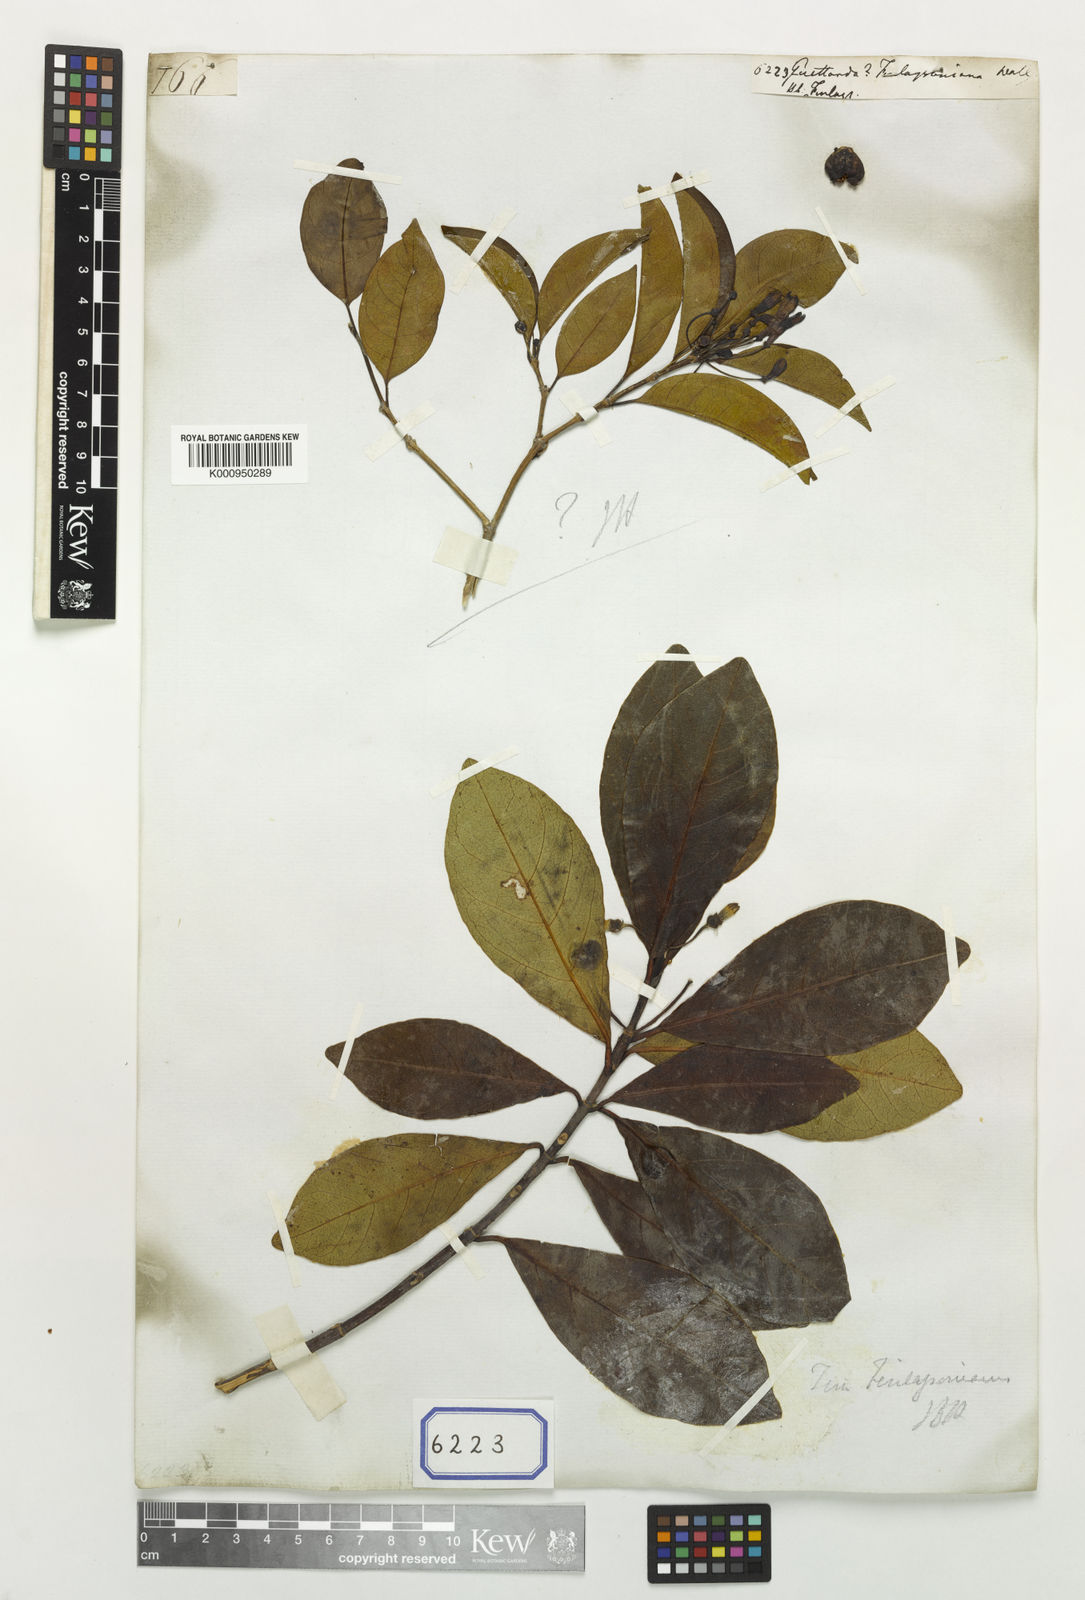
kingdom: Plantae
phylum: Tracheophyta
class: Magnoliopsida
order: Gentianales
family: Rubiaceae
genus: Timonius
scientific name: Timonius finlaysonianus
